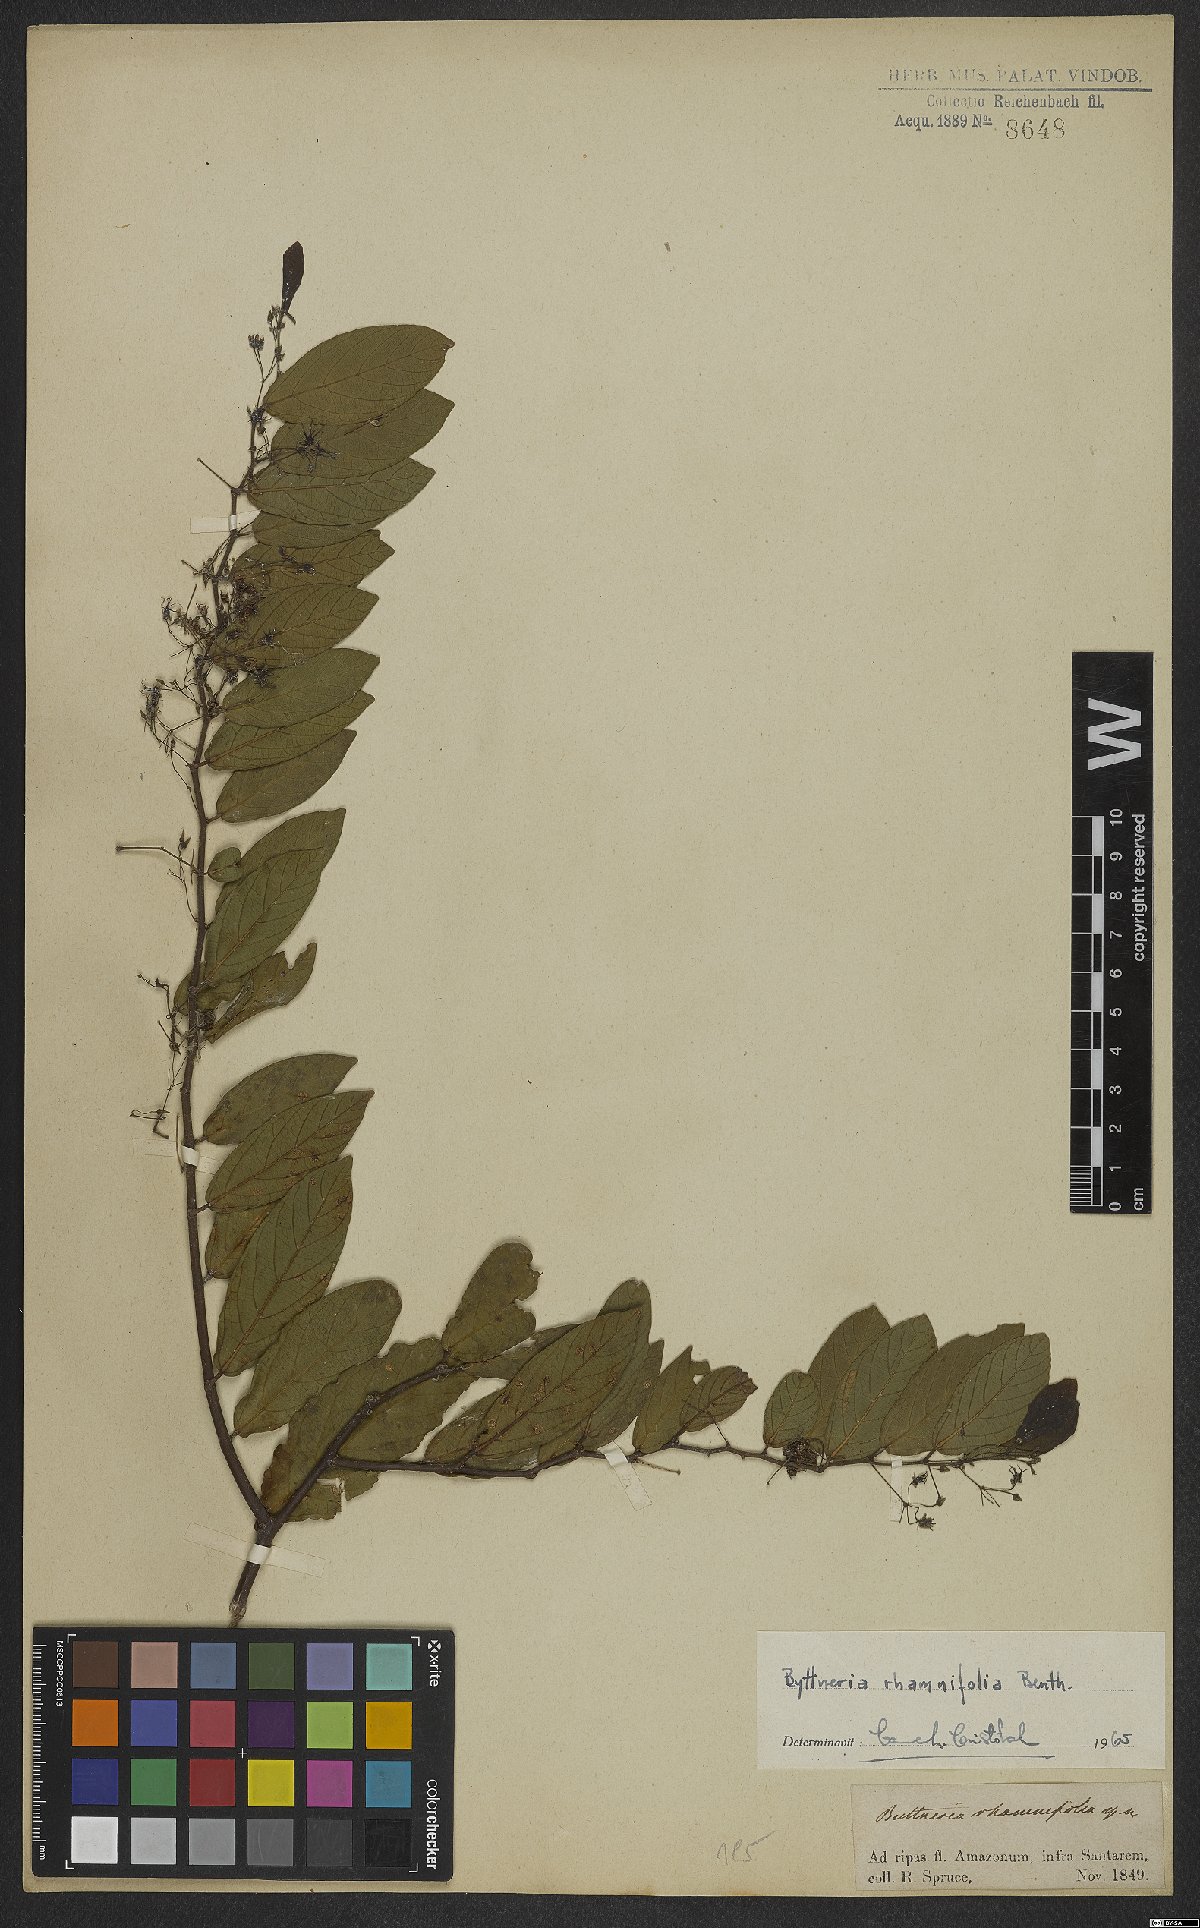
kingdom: Plantae
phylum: Tracheophyta
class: Magnoliopsida
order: Malvales
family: Malvaceae
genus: Byttneria
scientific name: Byttneria rhamnifolia
